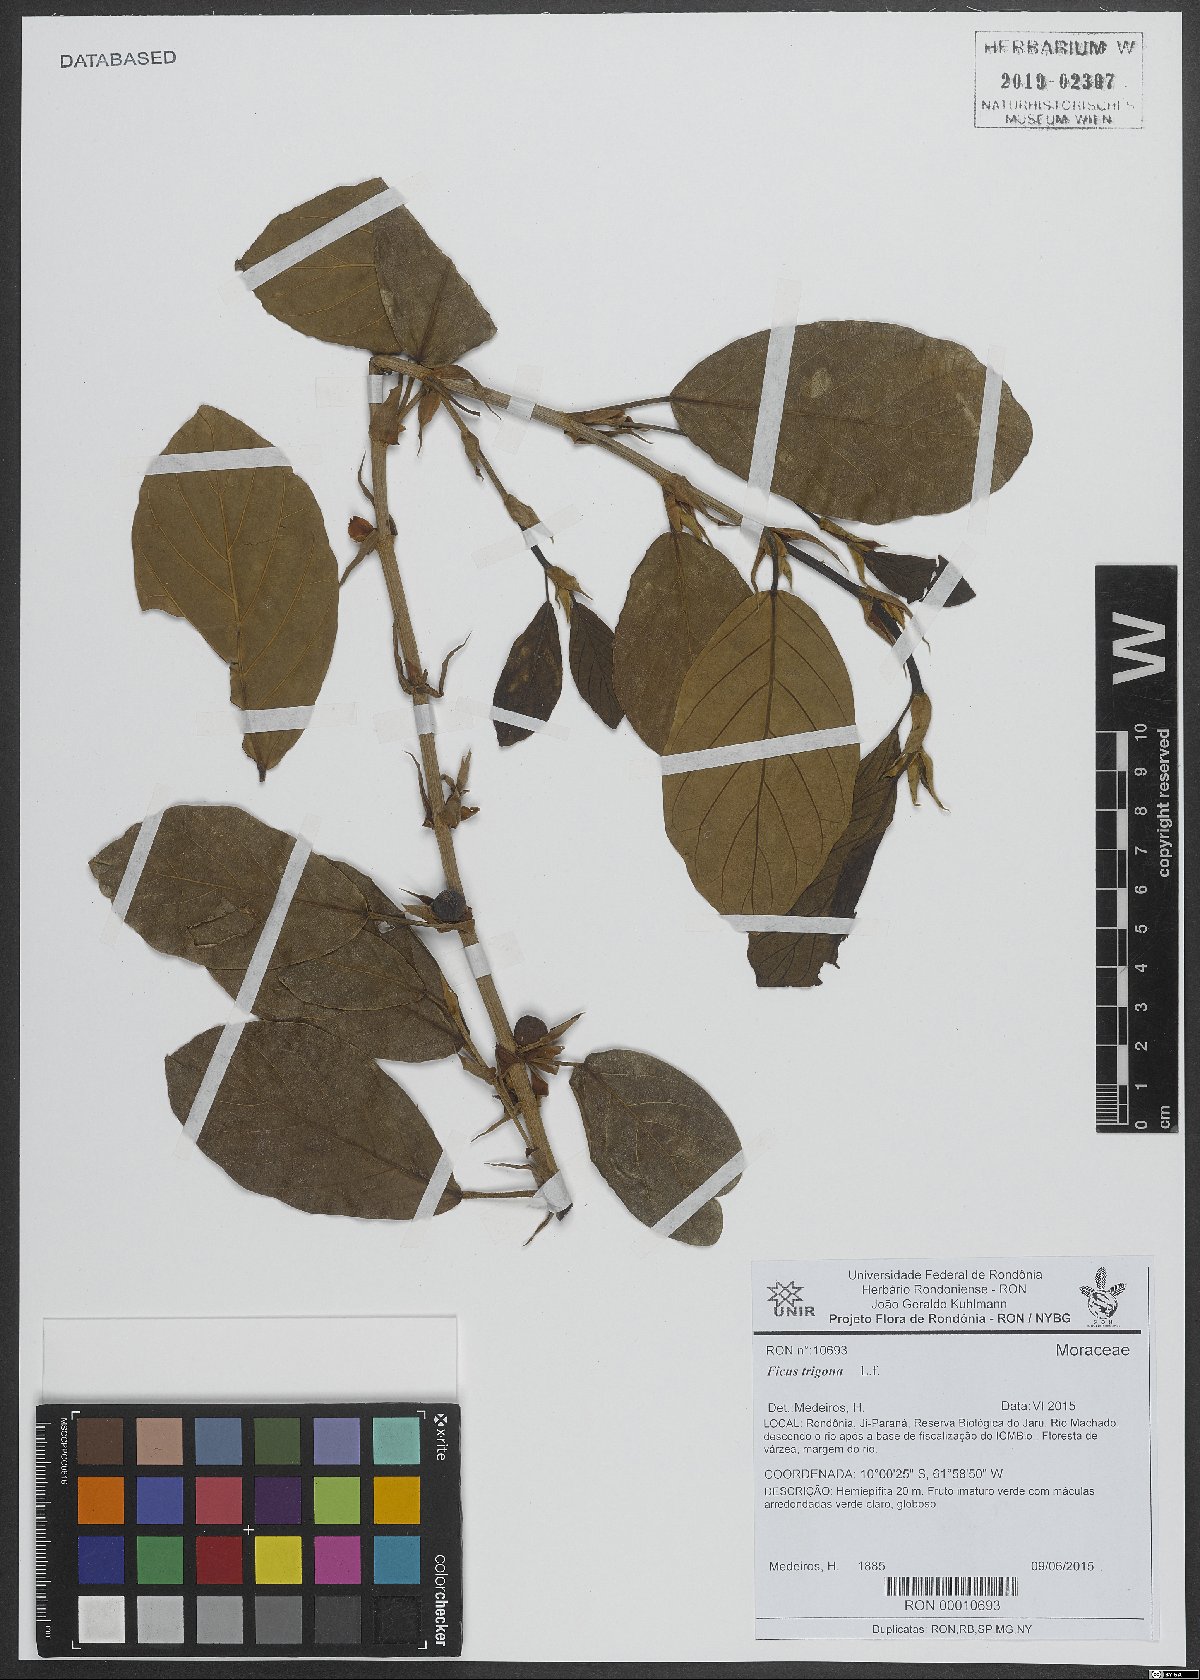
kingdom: Plantae
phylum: Tracheophyta
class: Magnoliopsida
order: Rosales
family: Moraceae
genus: Ficus
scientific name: Ficus trigona
